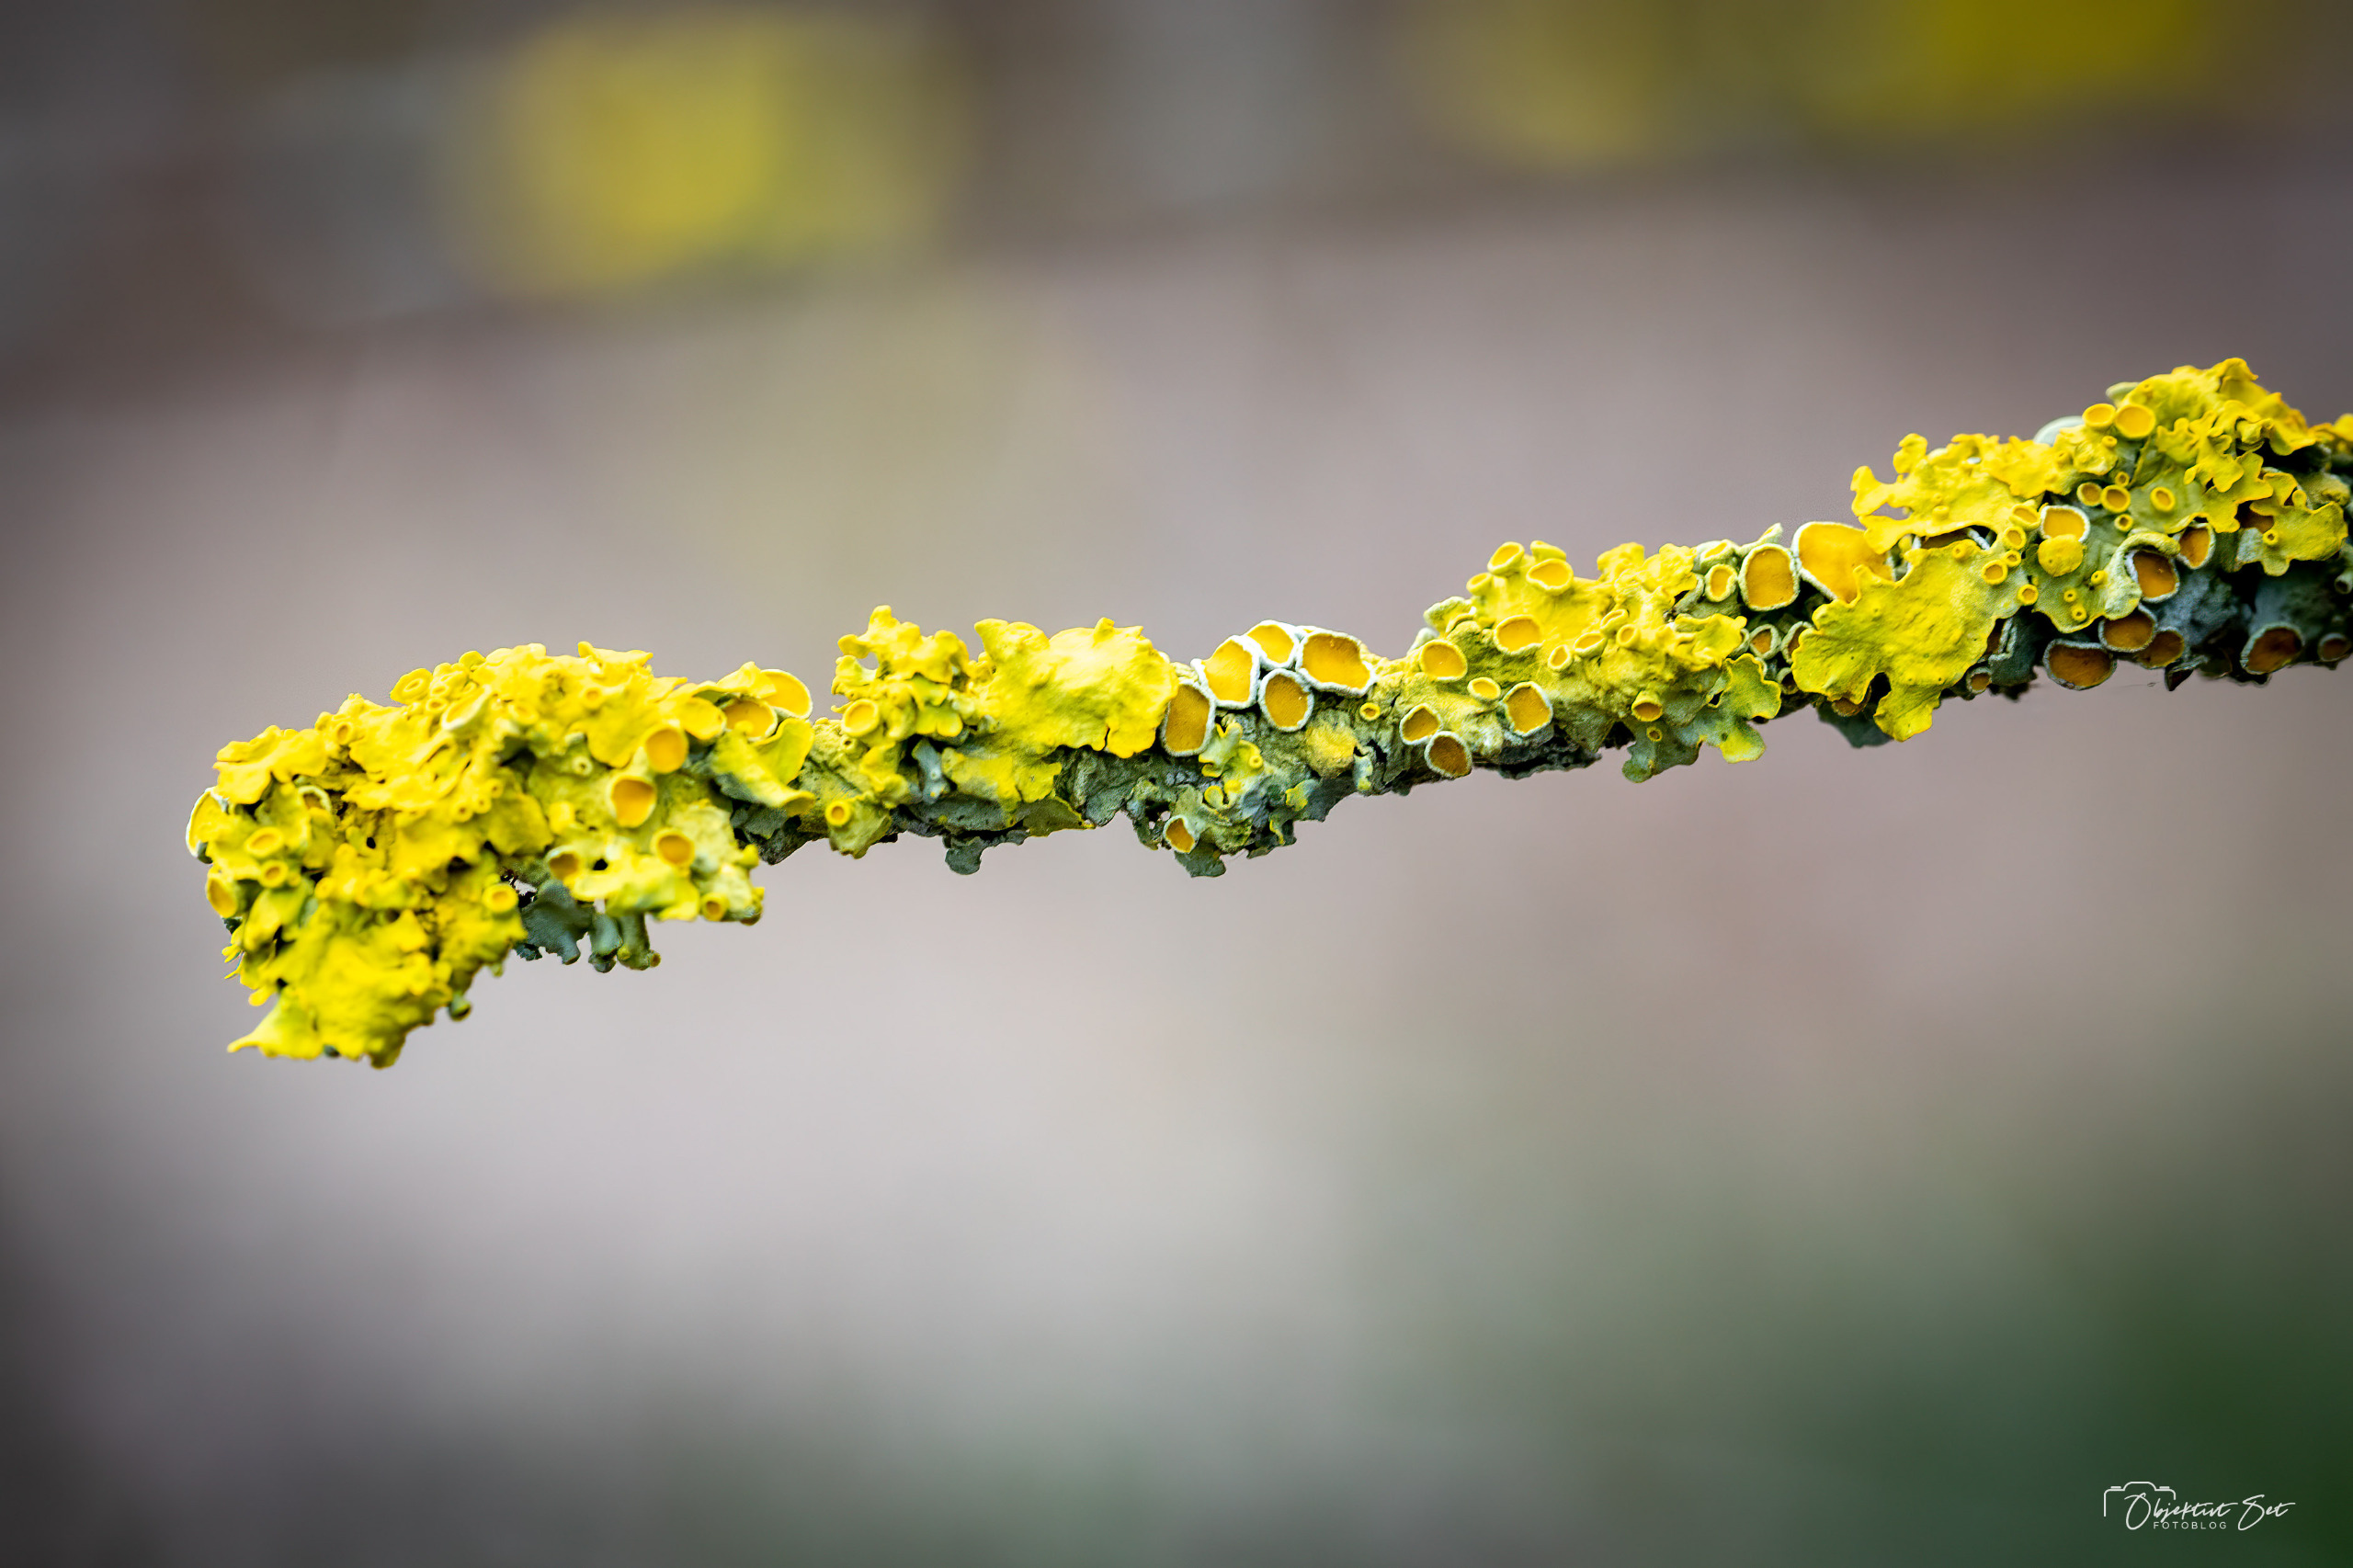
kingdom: Fungi
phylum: Ascomycota
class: Lecanoromycetes
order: Teloschistales
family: Teloschistaceae
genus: Xanthoria
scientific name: Xanthoria parietina
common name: Almindelig væggelav
